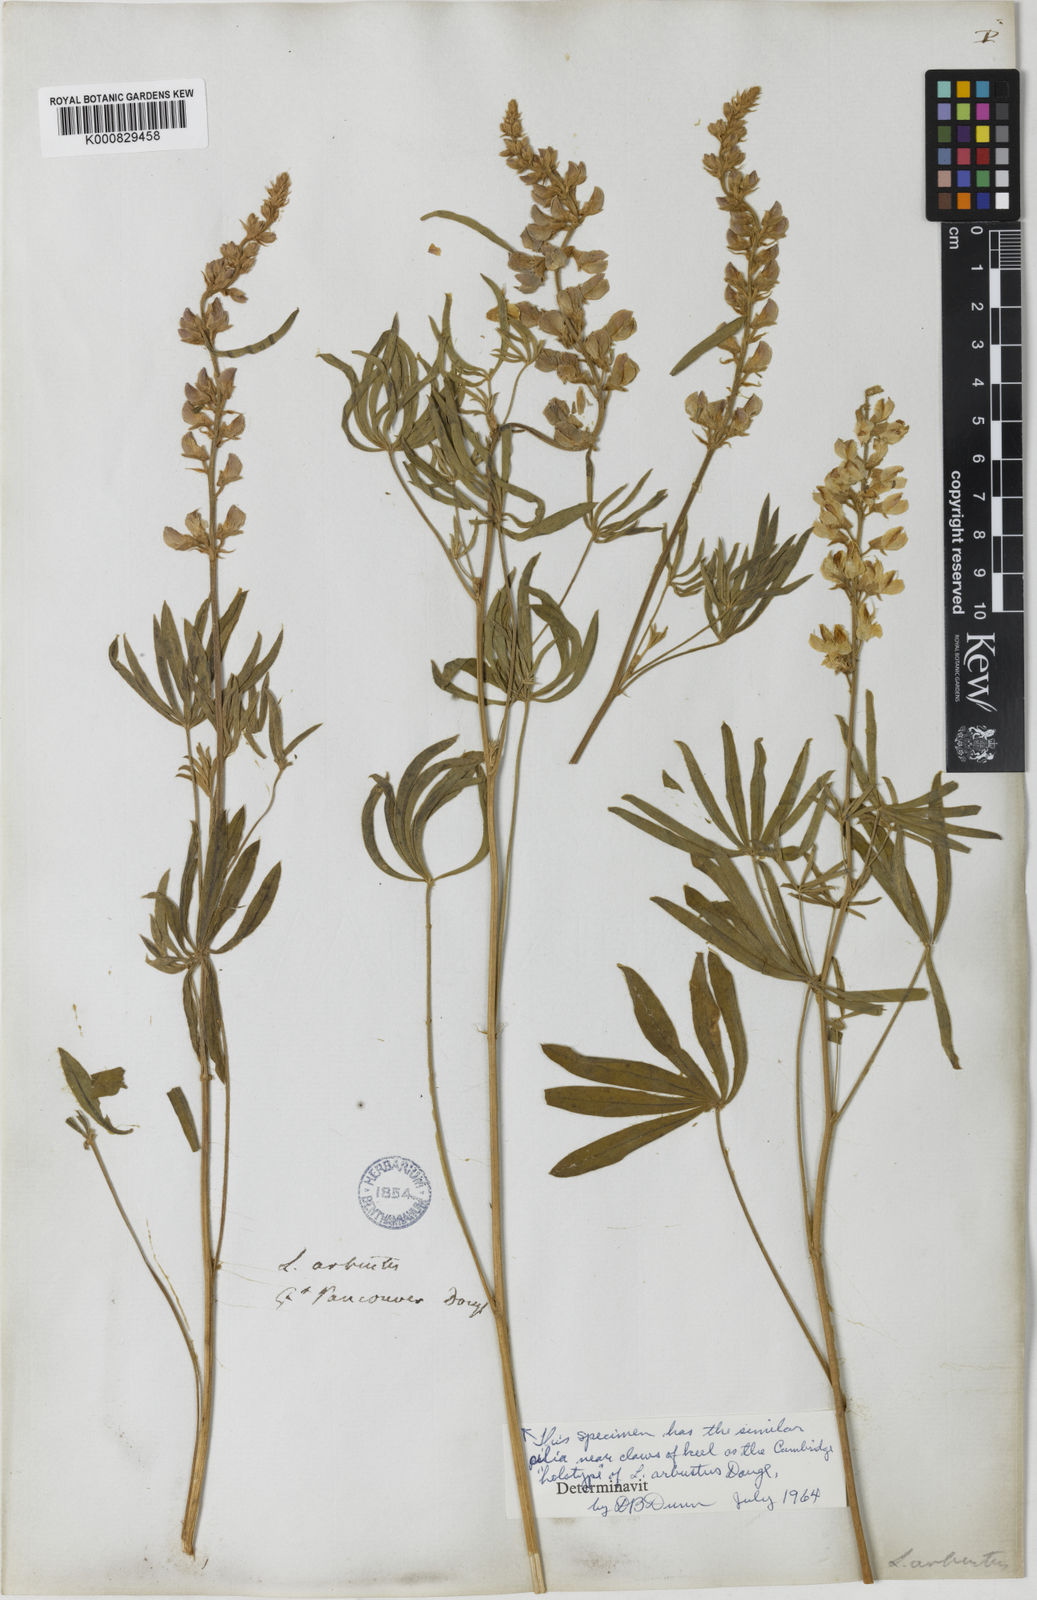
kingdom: Plantae
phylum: Tracheophyta
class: Magnoliopsida
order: Fabales
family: Fabaceae
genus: Lupinus
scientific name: Lupinus arbustus
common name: Montana lupine
